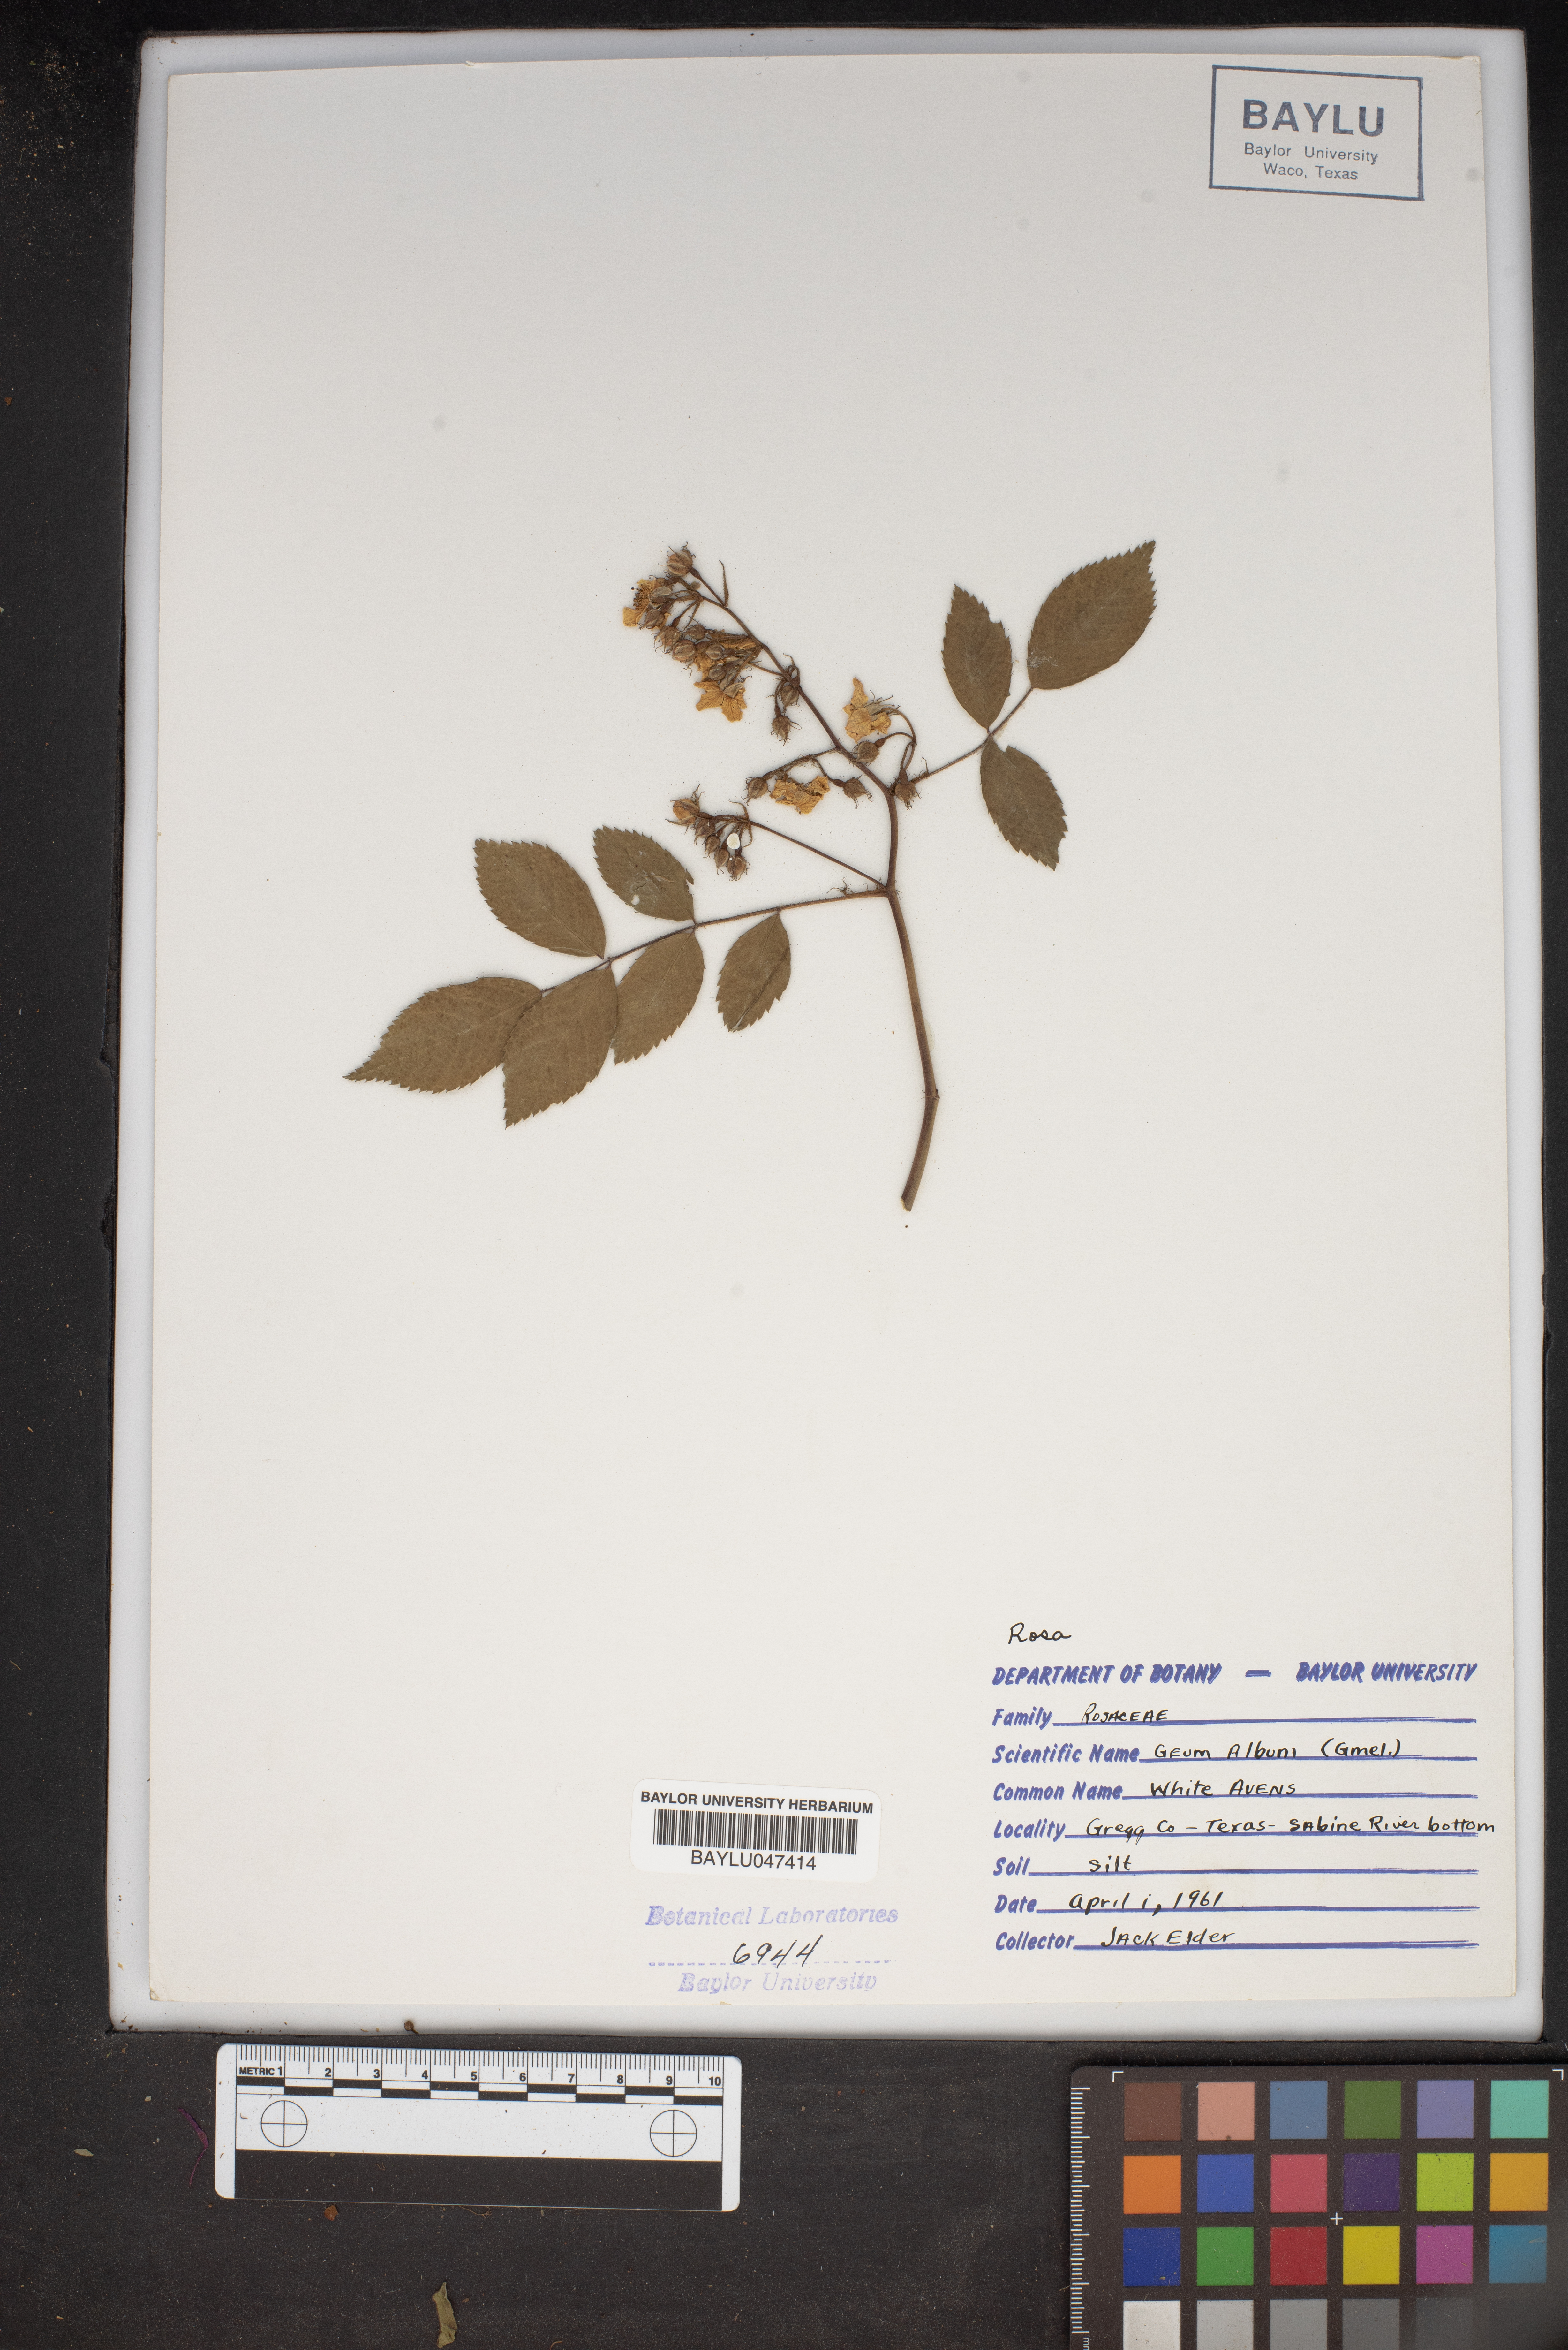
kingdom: Plantae
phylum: Tracheophyta
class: Magnoliopsida
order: Rosales
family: Rosaceae
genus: Geum
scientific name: Geum canadense
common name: White avens
